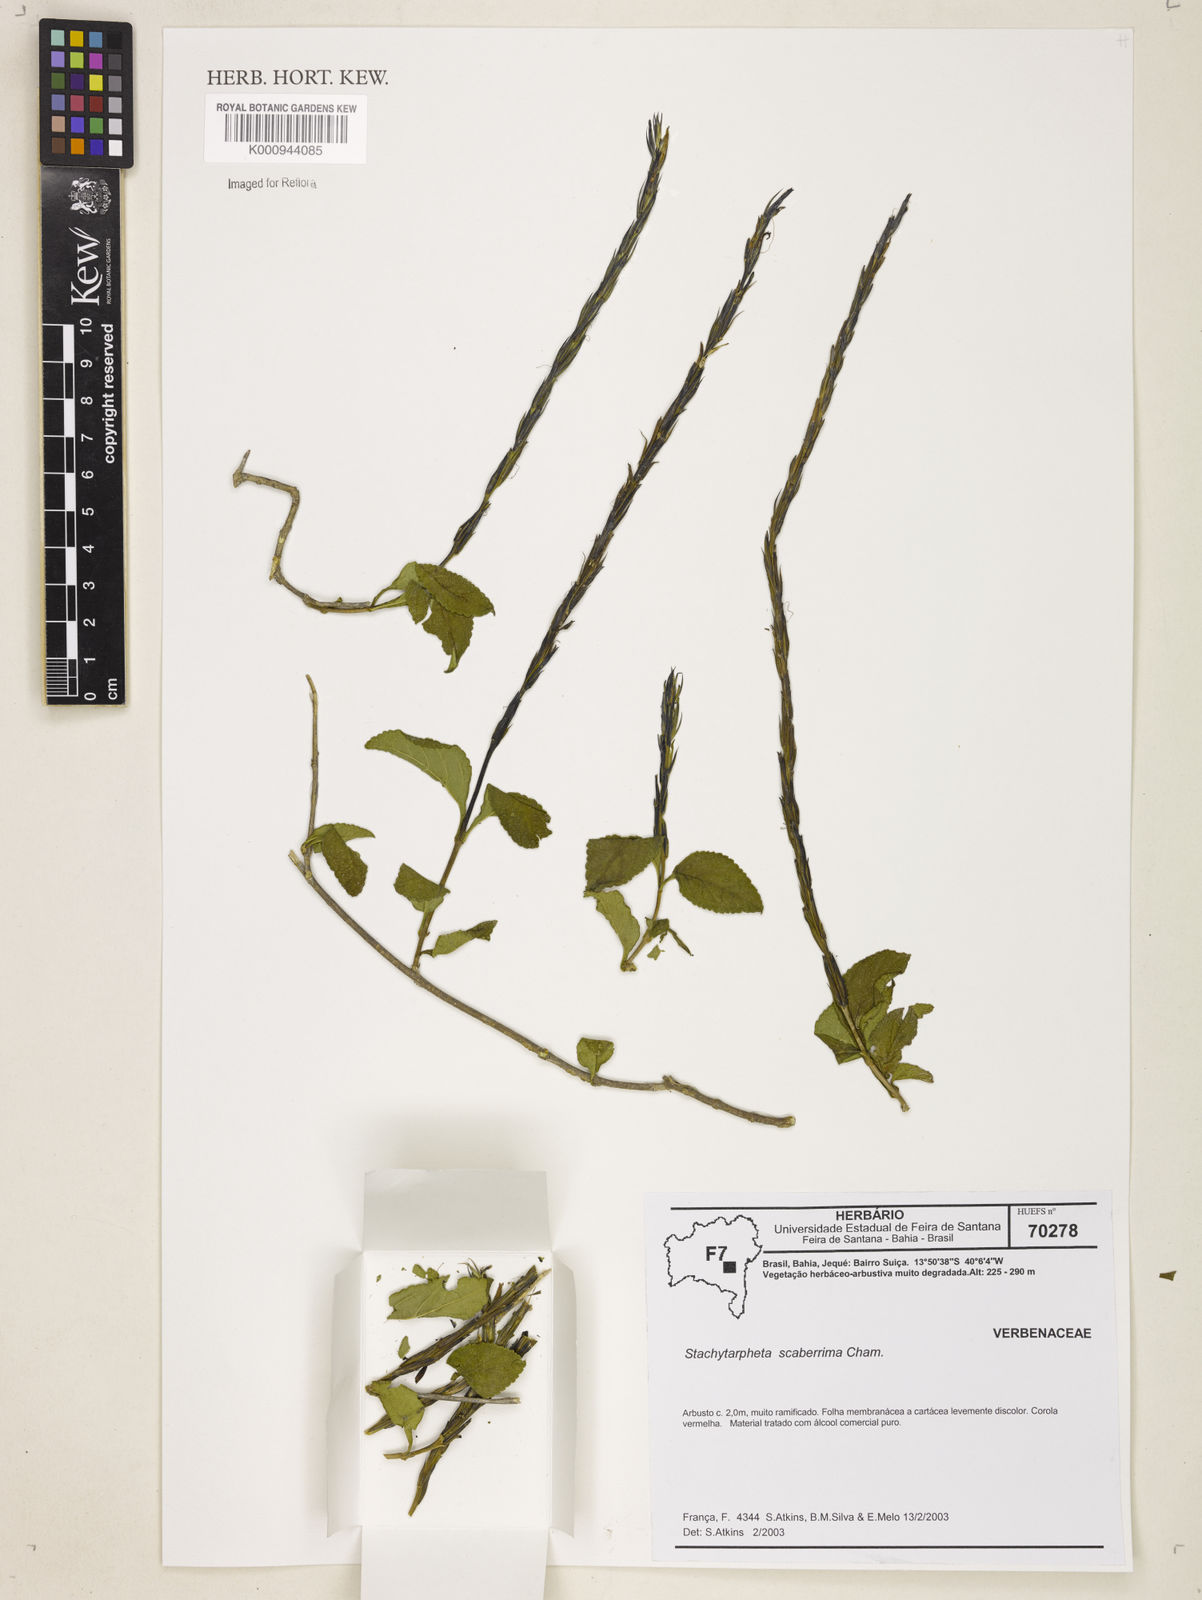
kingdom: Plantae
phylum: Tracheophyta
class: Magnoliopsida
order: Lamiales
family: Verbenaceae
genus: Stachytarpheta
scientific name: Stachytarpheta scaberrima
